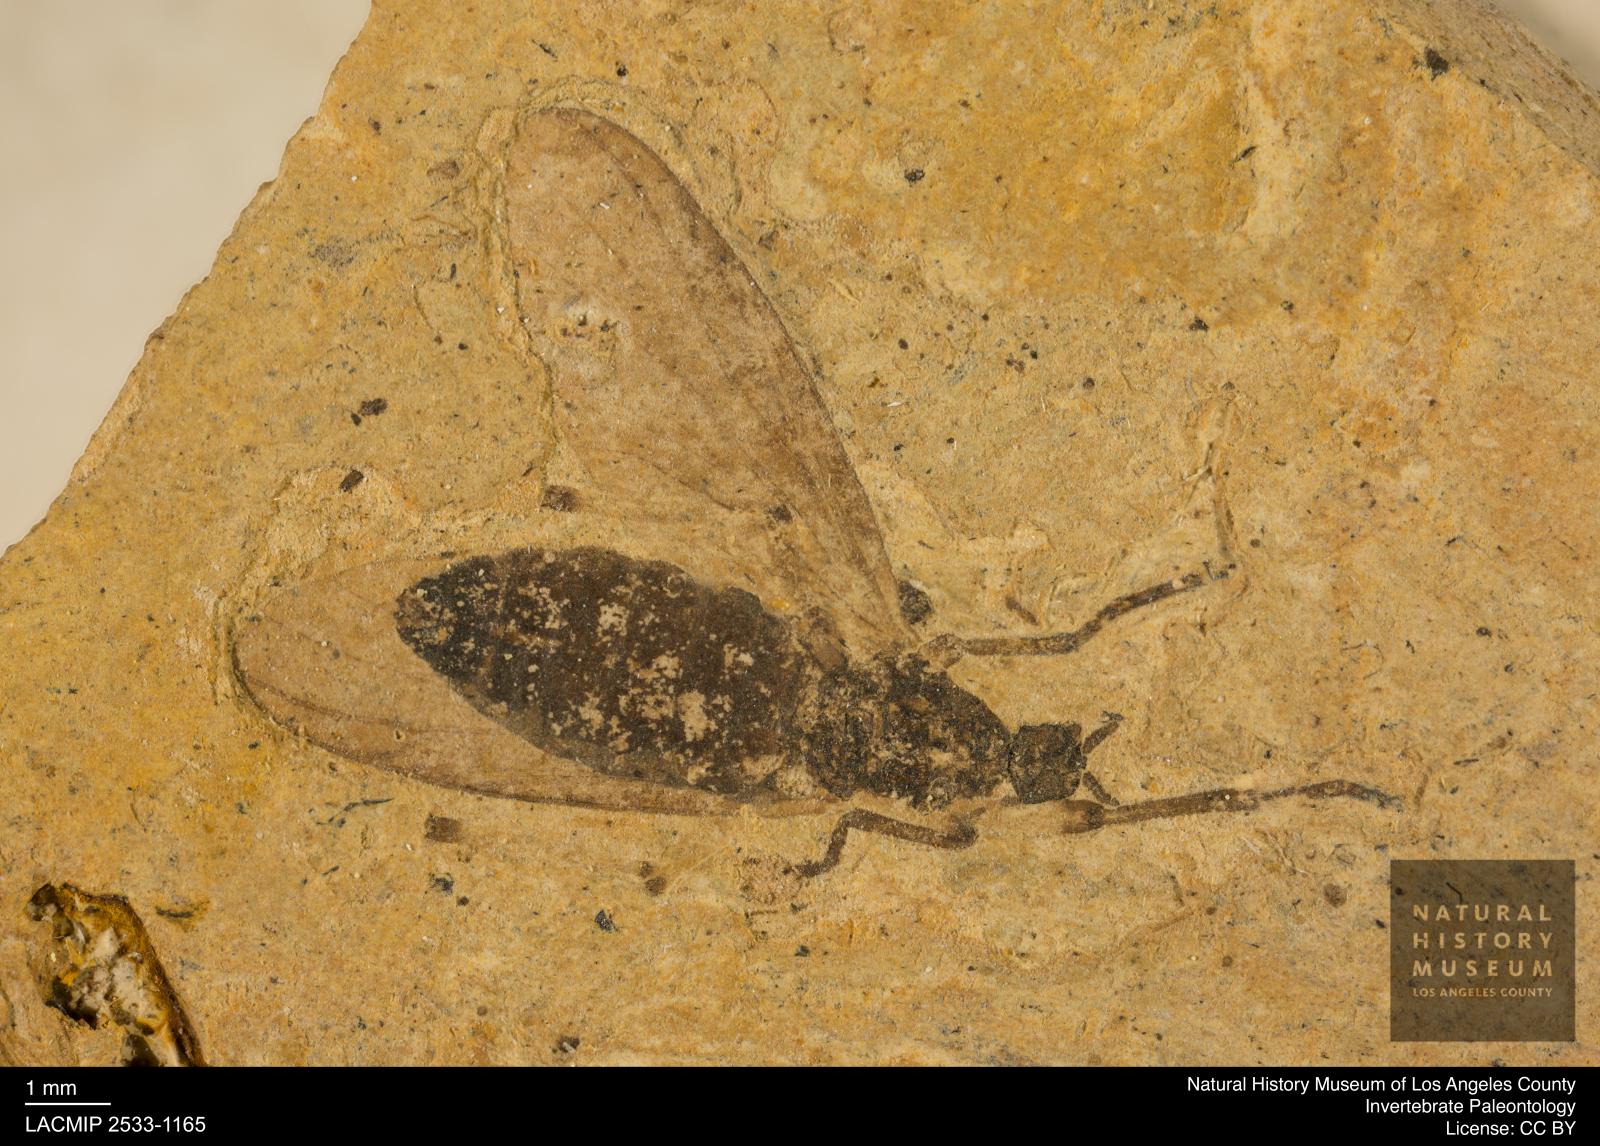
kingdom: Animalia
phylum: Arthropoda
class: Insecta
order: Diptera
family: Bibionidae
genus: Plecia
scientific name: Plecia grossa
